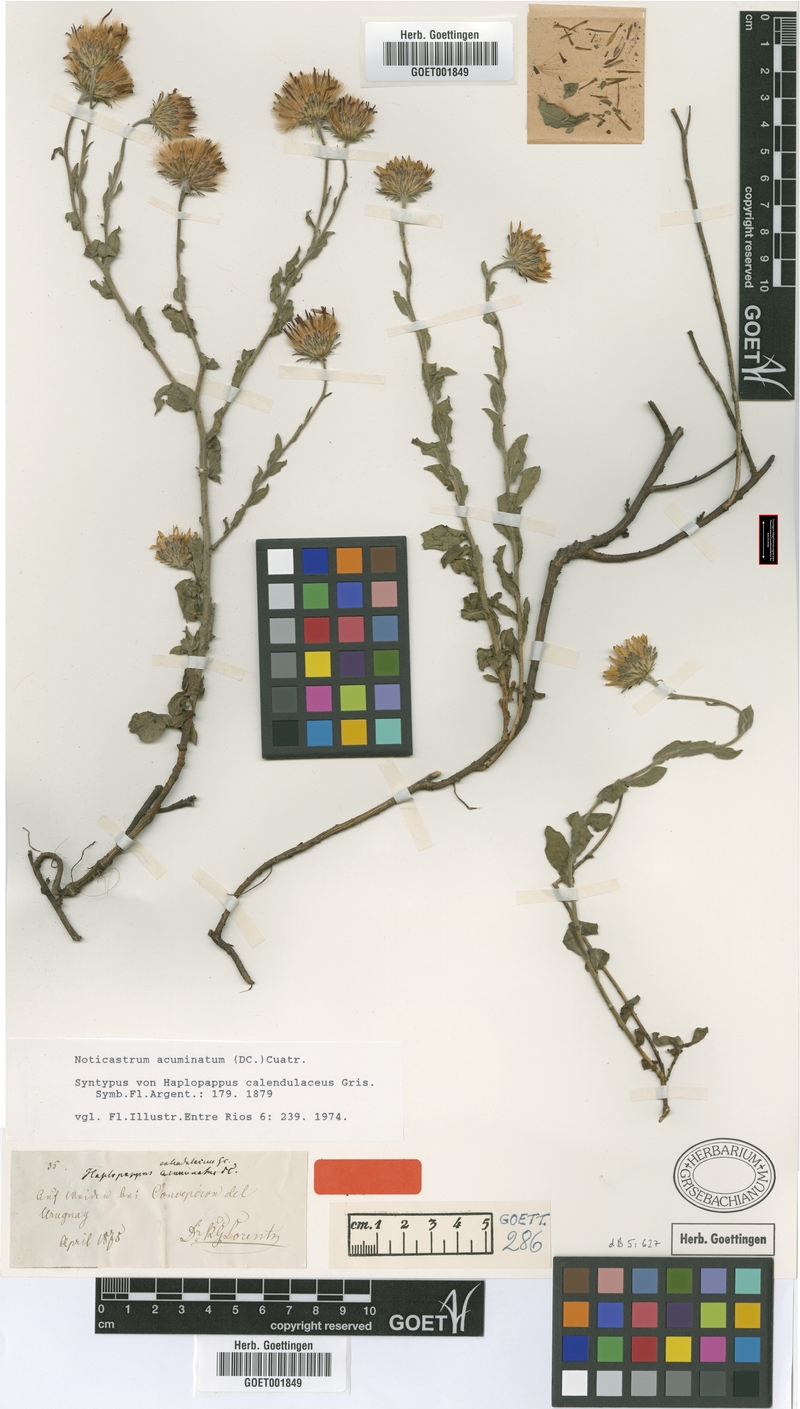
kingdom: Plantae
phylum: Tracheophyta
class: Magnoliopsida
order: Asterales
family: Asteraceae
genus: Noticastrum
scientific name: Noticastrum acuminatum
